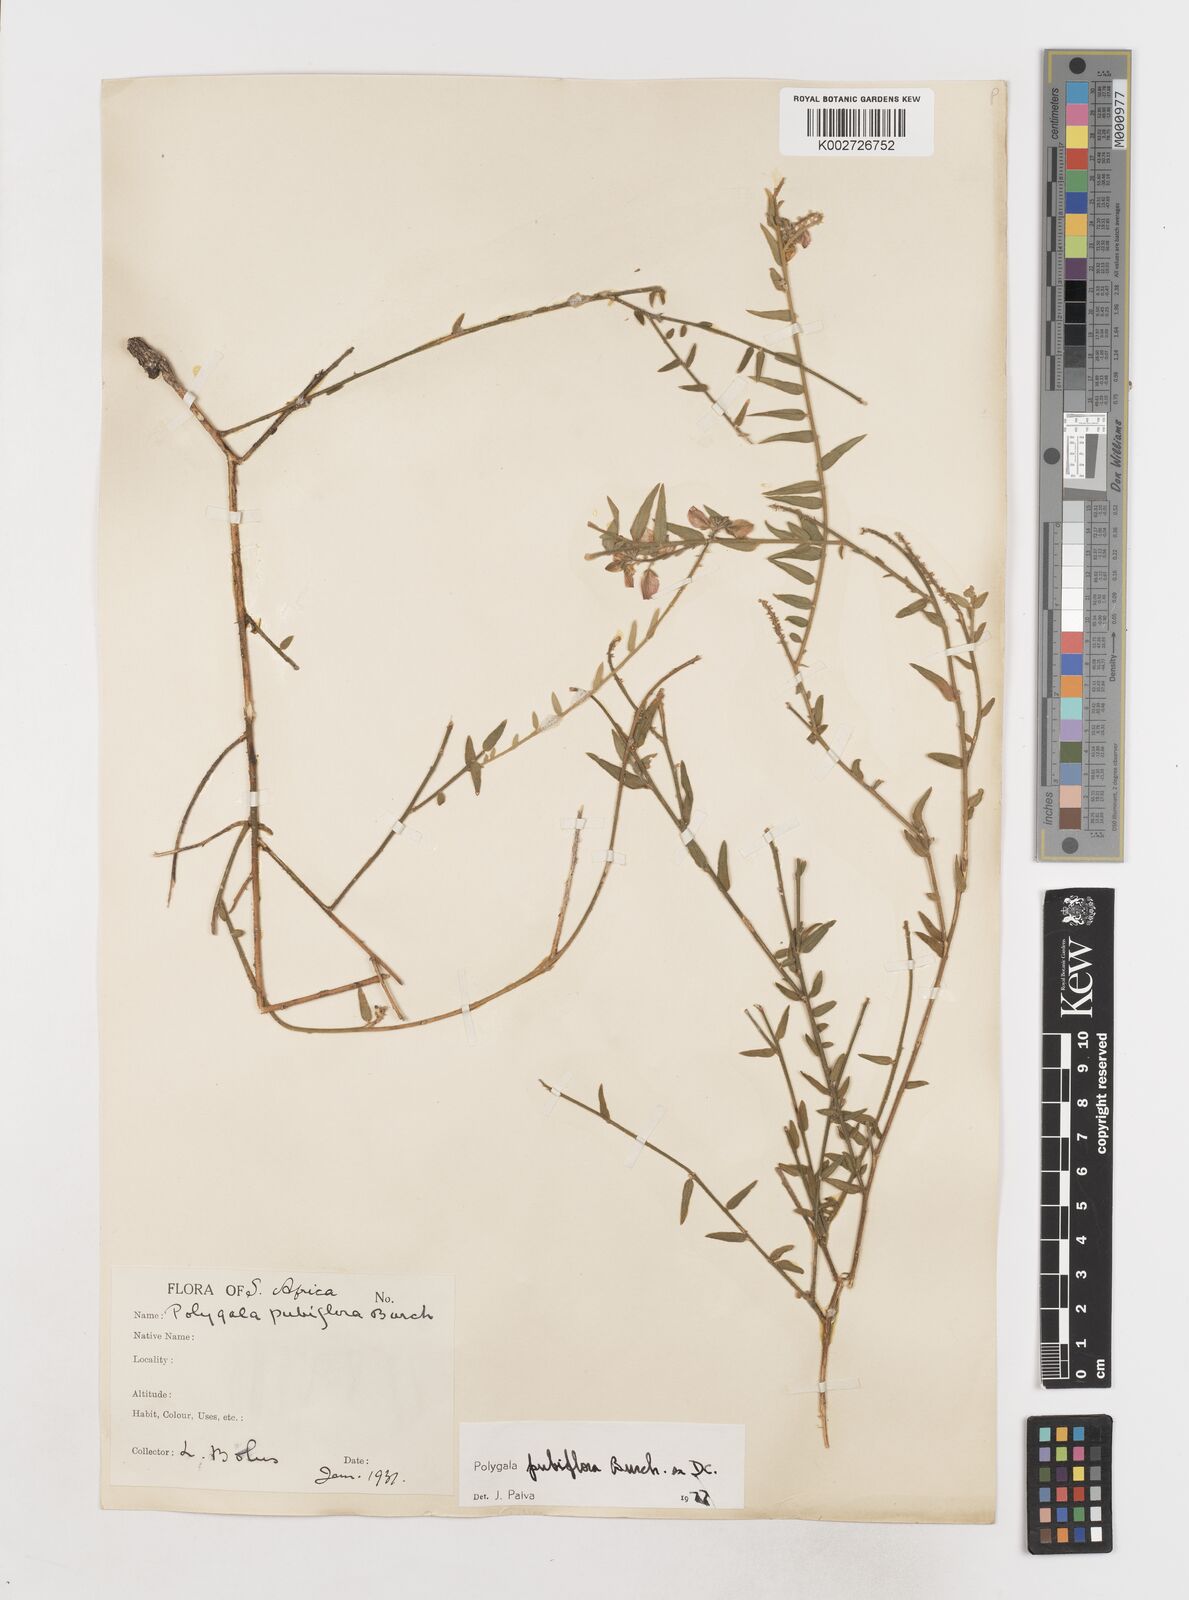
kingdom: Plantae
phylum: Tracheophyta
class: Magnoliopsida
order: Fabales
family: Polygalaceae
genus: Polygala
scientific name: Polygala pubiflora
